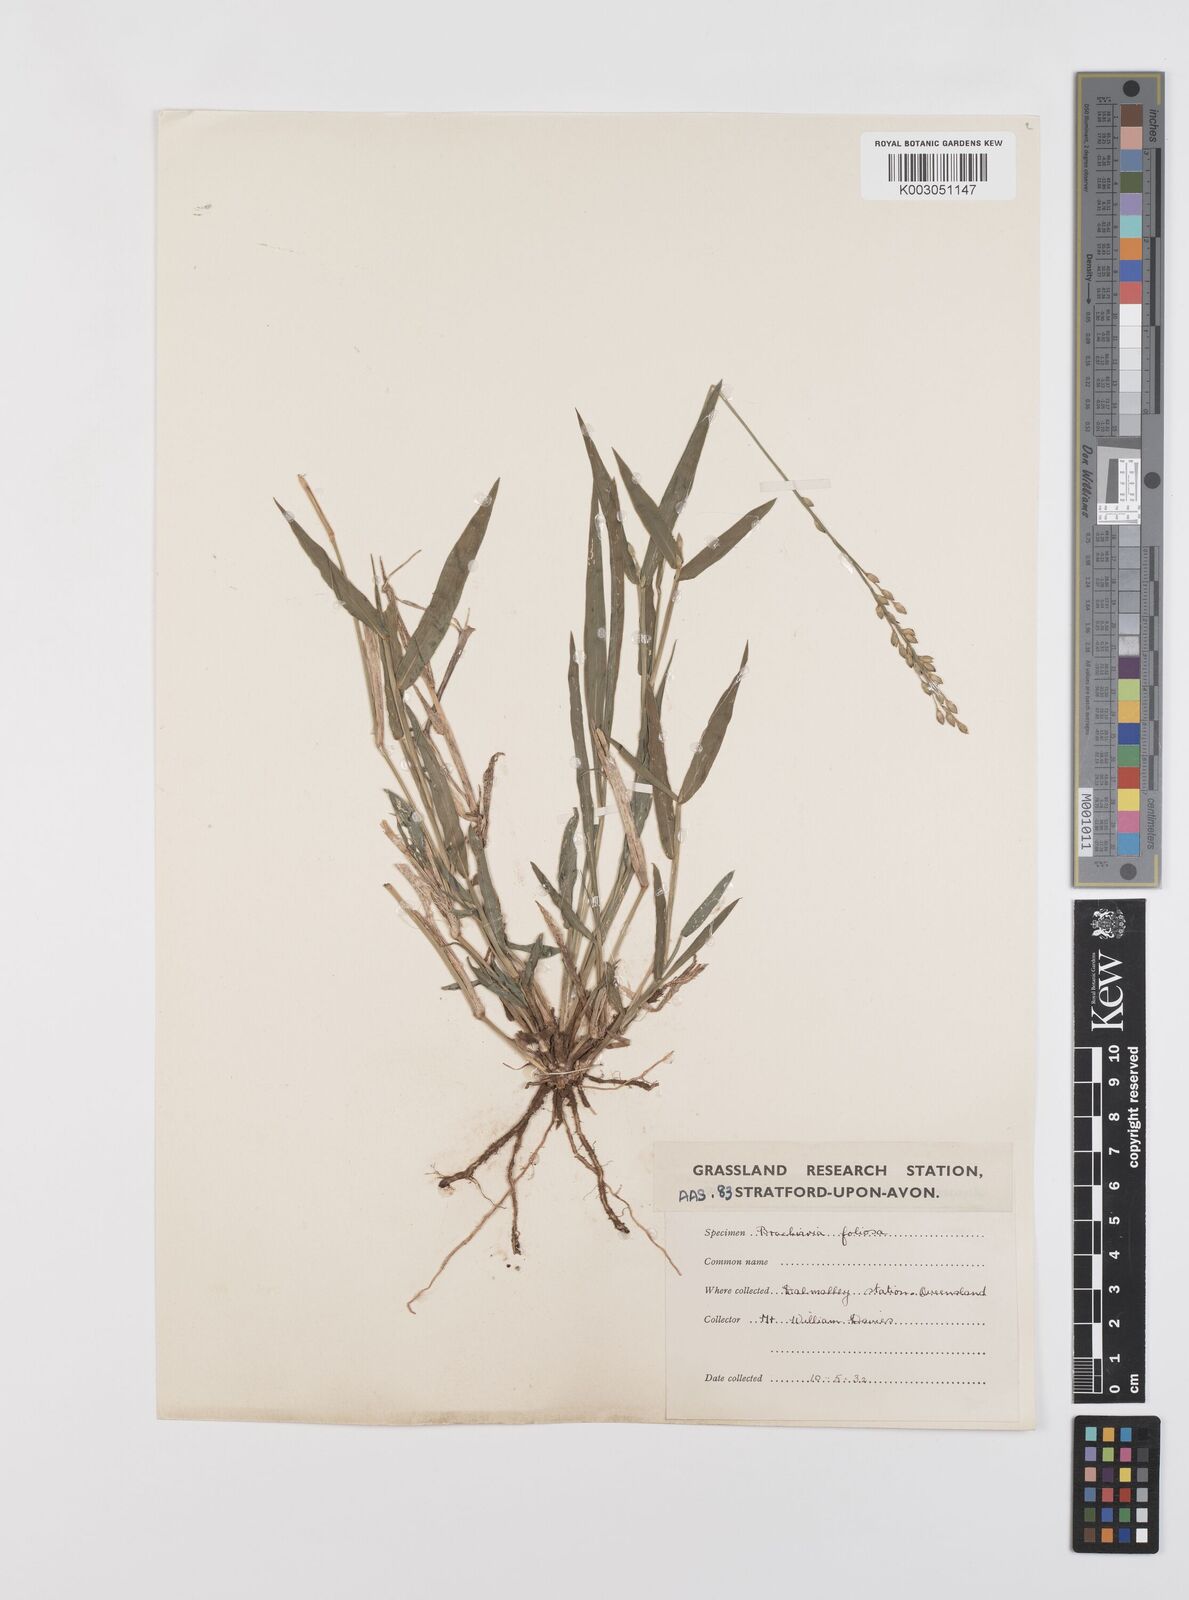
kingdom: Plantae
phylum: Tracheophyta
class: Liliopsida
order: Poales
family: Poaceae
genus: Urochloa
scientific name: Urochloa foliosa
